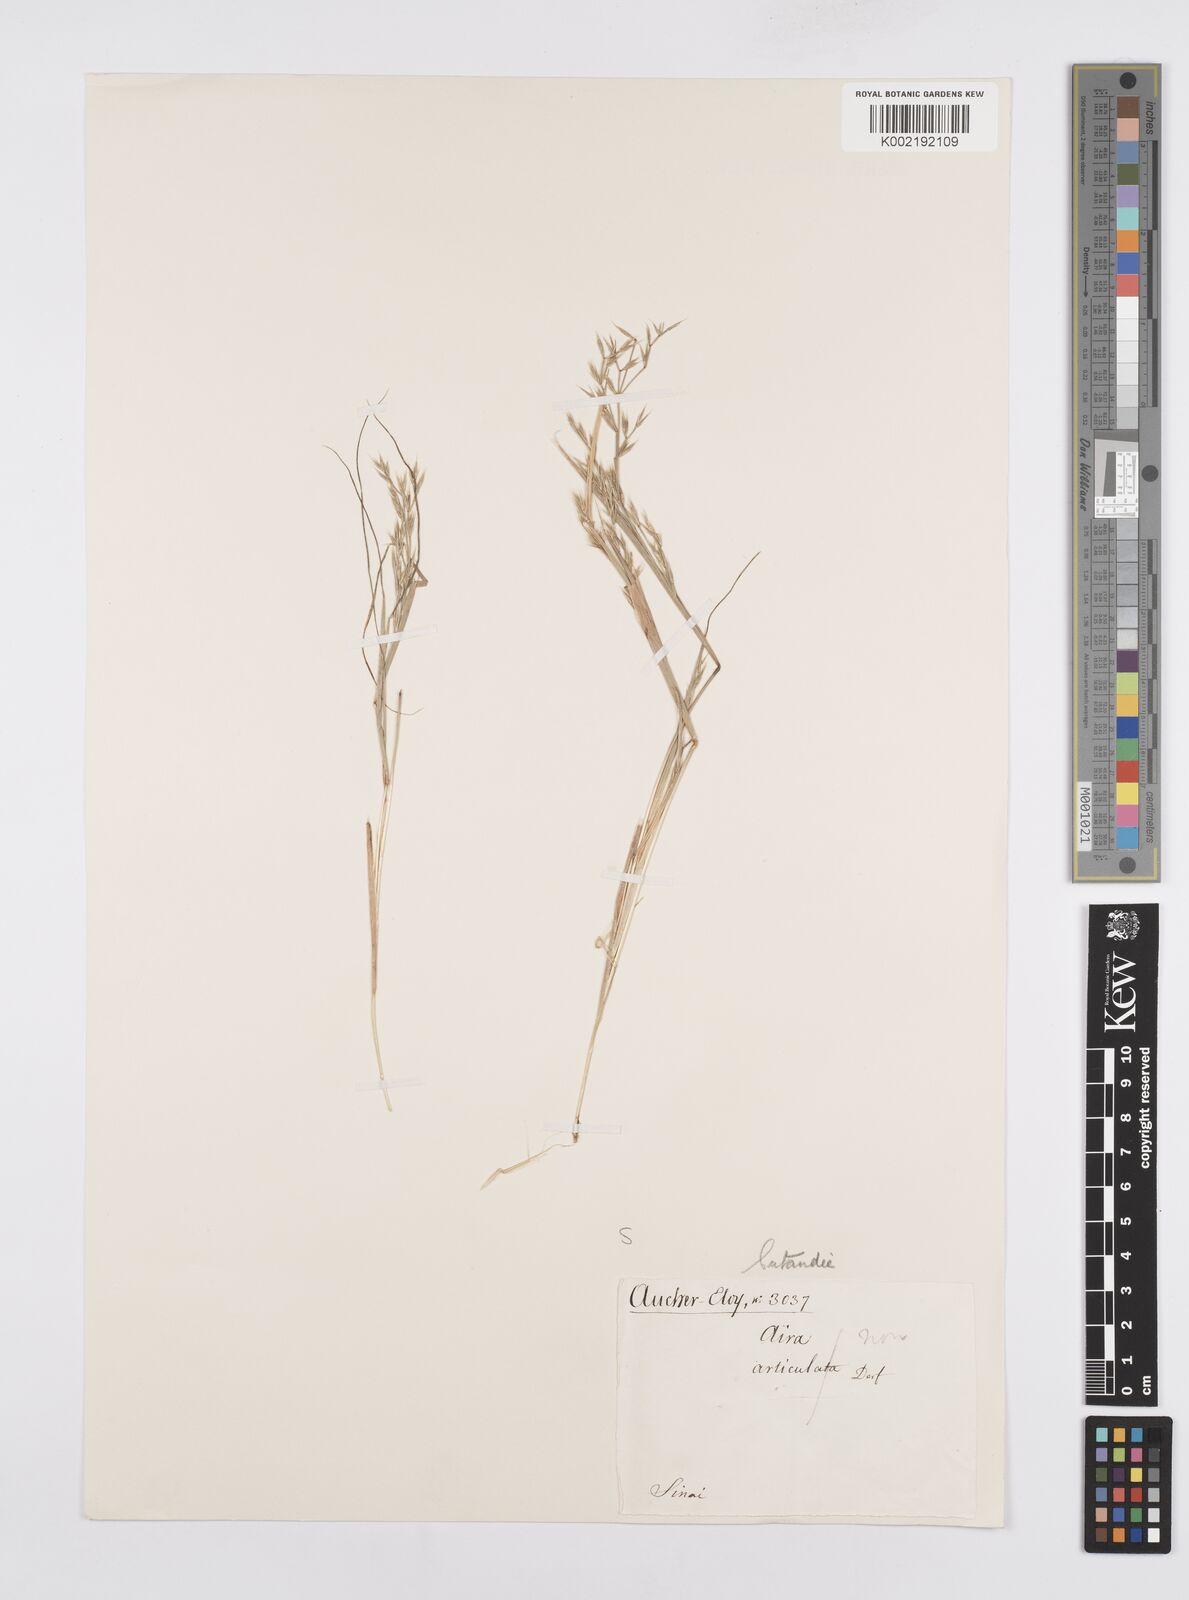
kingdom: Plantae
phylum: Tracheophyta
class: Liliopsida
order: Poales
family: Poaceae
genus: Cutandia
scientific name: Cutandia memphitica
